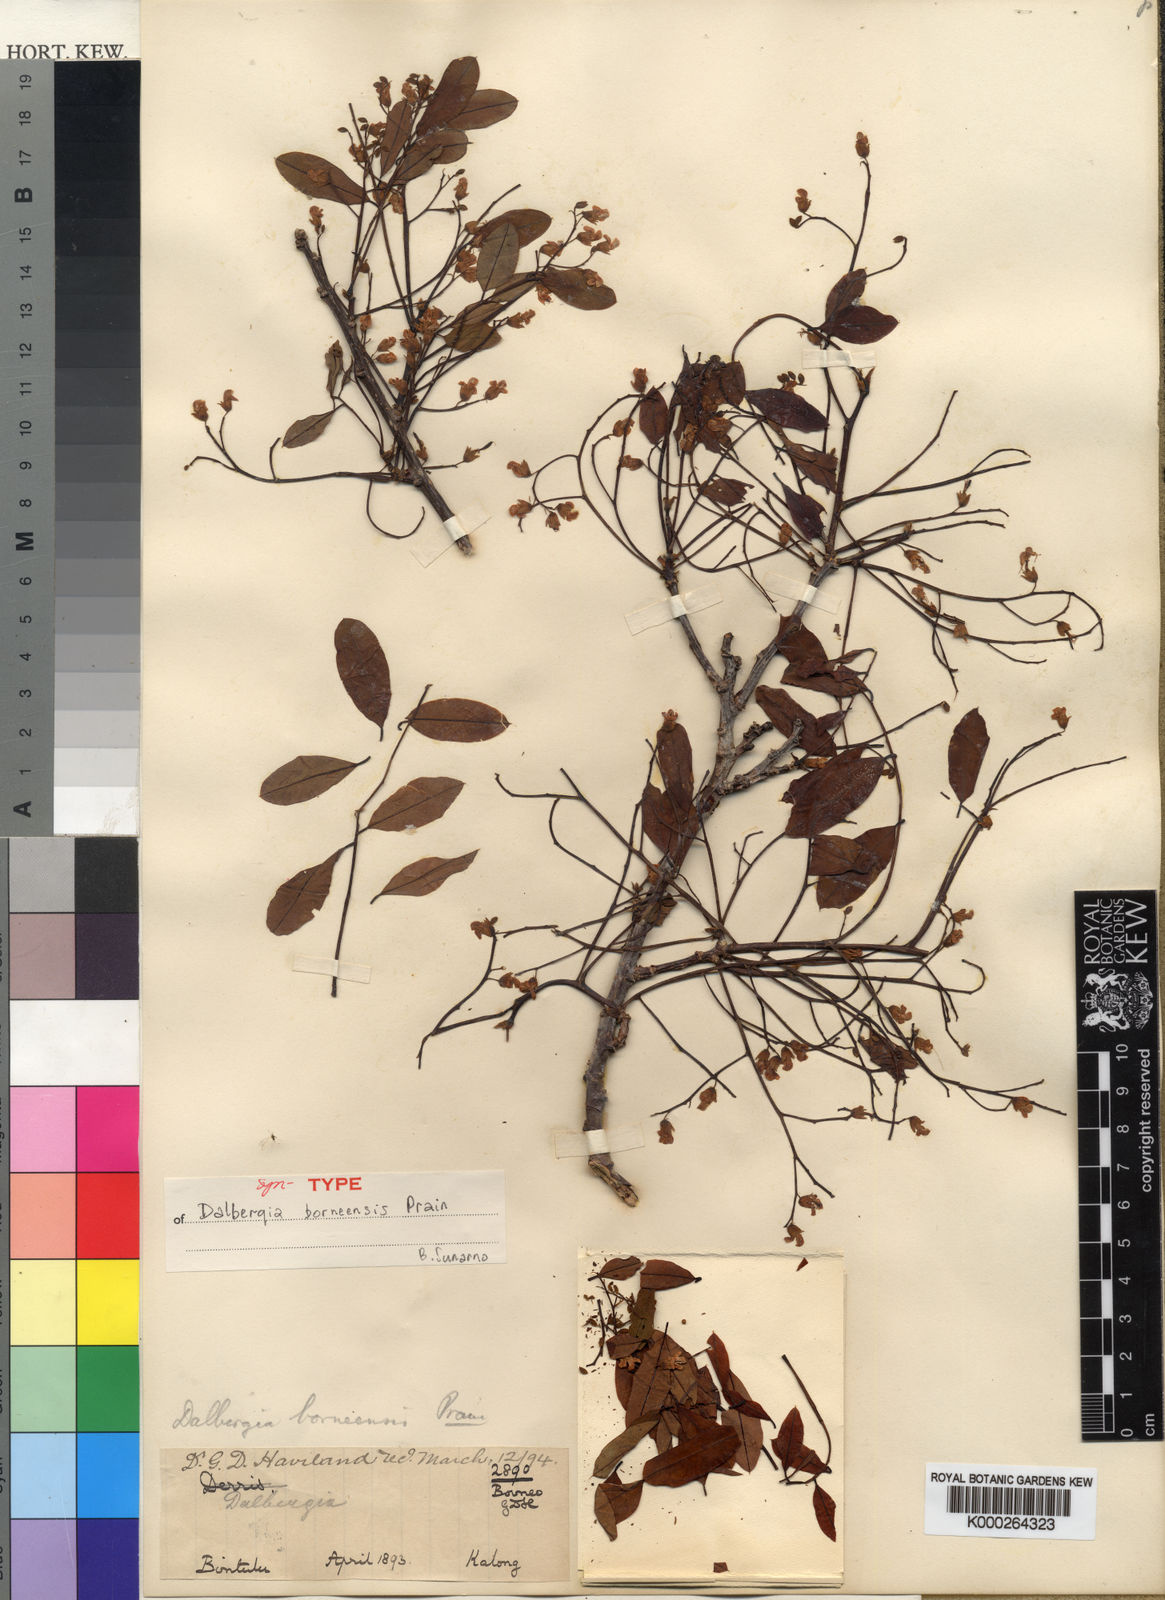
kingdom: Plantae
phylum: Tracheophyta
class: Magnoliopsida
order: Fabales
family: Fabaceae
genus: Dalbergia
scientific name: Dalbergia borneensis
